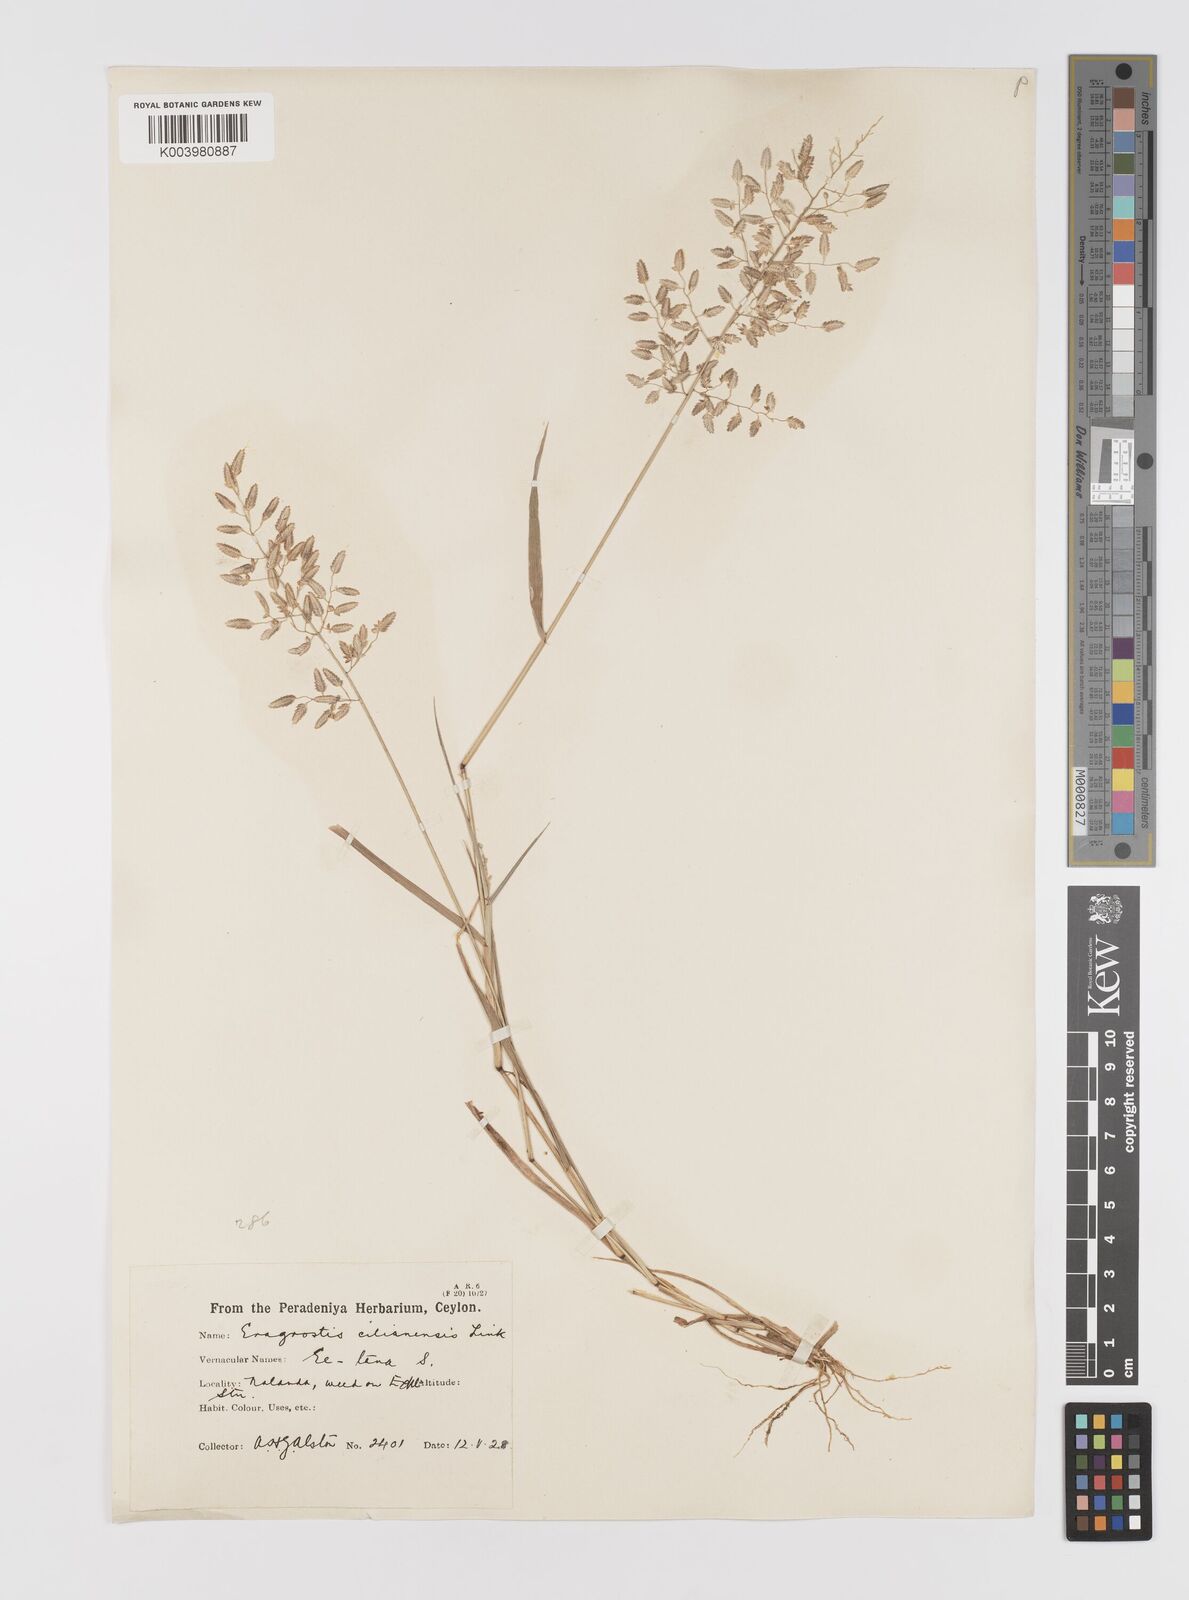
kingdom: Plantae
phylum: Tracheophyta
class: Liliopsida
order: Poales
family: Poaceae
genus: Eragrostis
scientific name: Eragrostis cilianensis
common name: Stinkgrass
